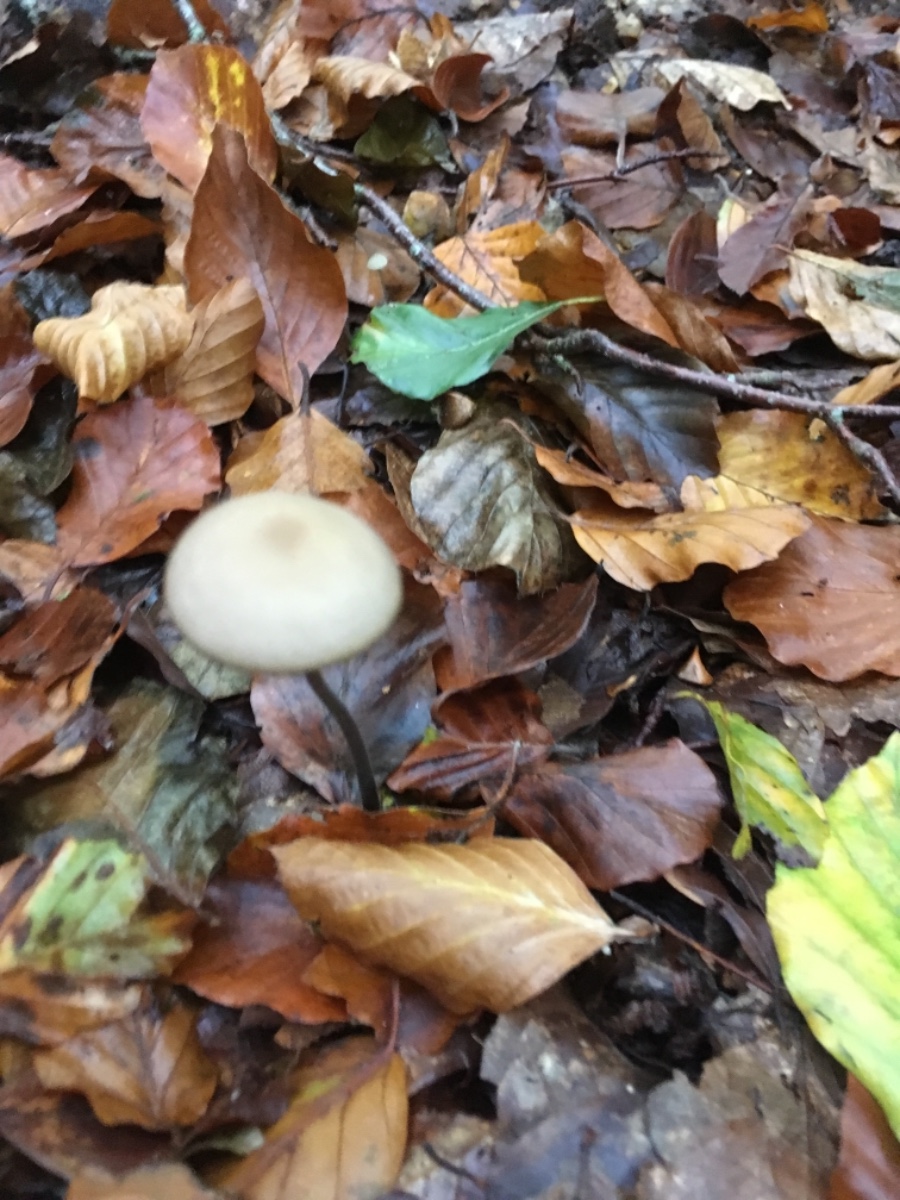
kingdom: Fungi
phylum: Basidiomycota
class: Agaricomycetes
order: Agaricales
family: Omphalotaceae
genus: Mycetinis
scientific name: Mycetinis alliaceus
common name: stor løghat
